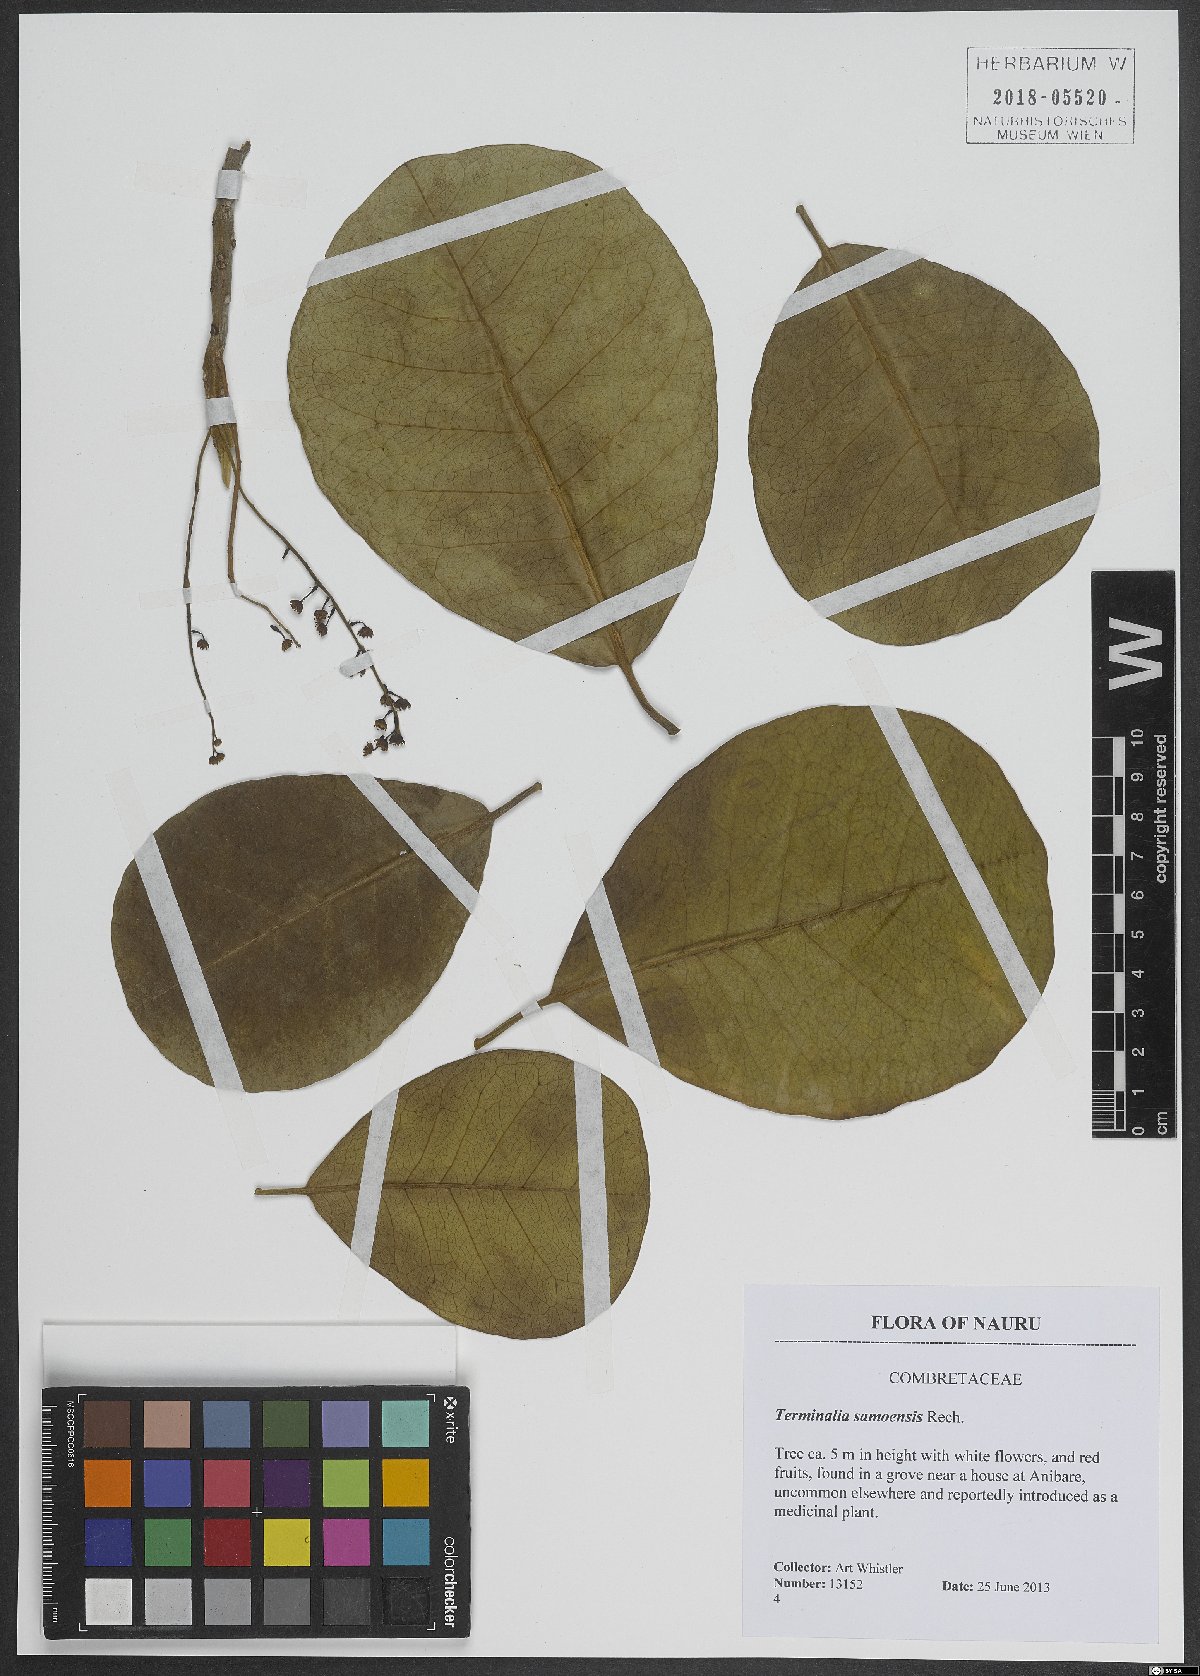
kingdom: Plantae
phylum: Tracheophyta
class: Magnoliopsida
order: Myrtales
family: Combretaceae
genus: Terminalia
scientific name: Terminalia samoensis
